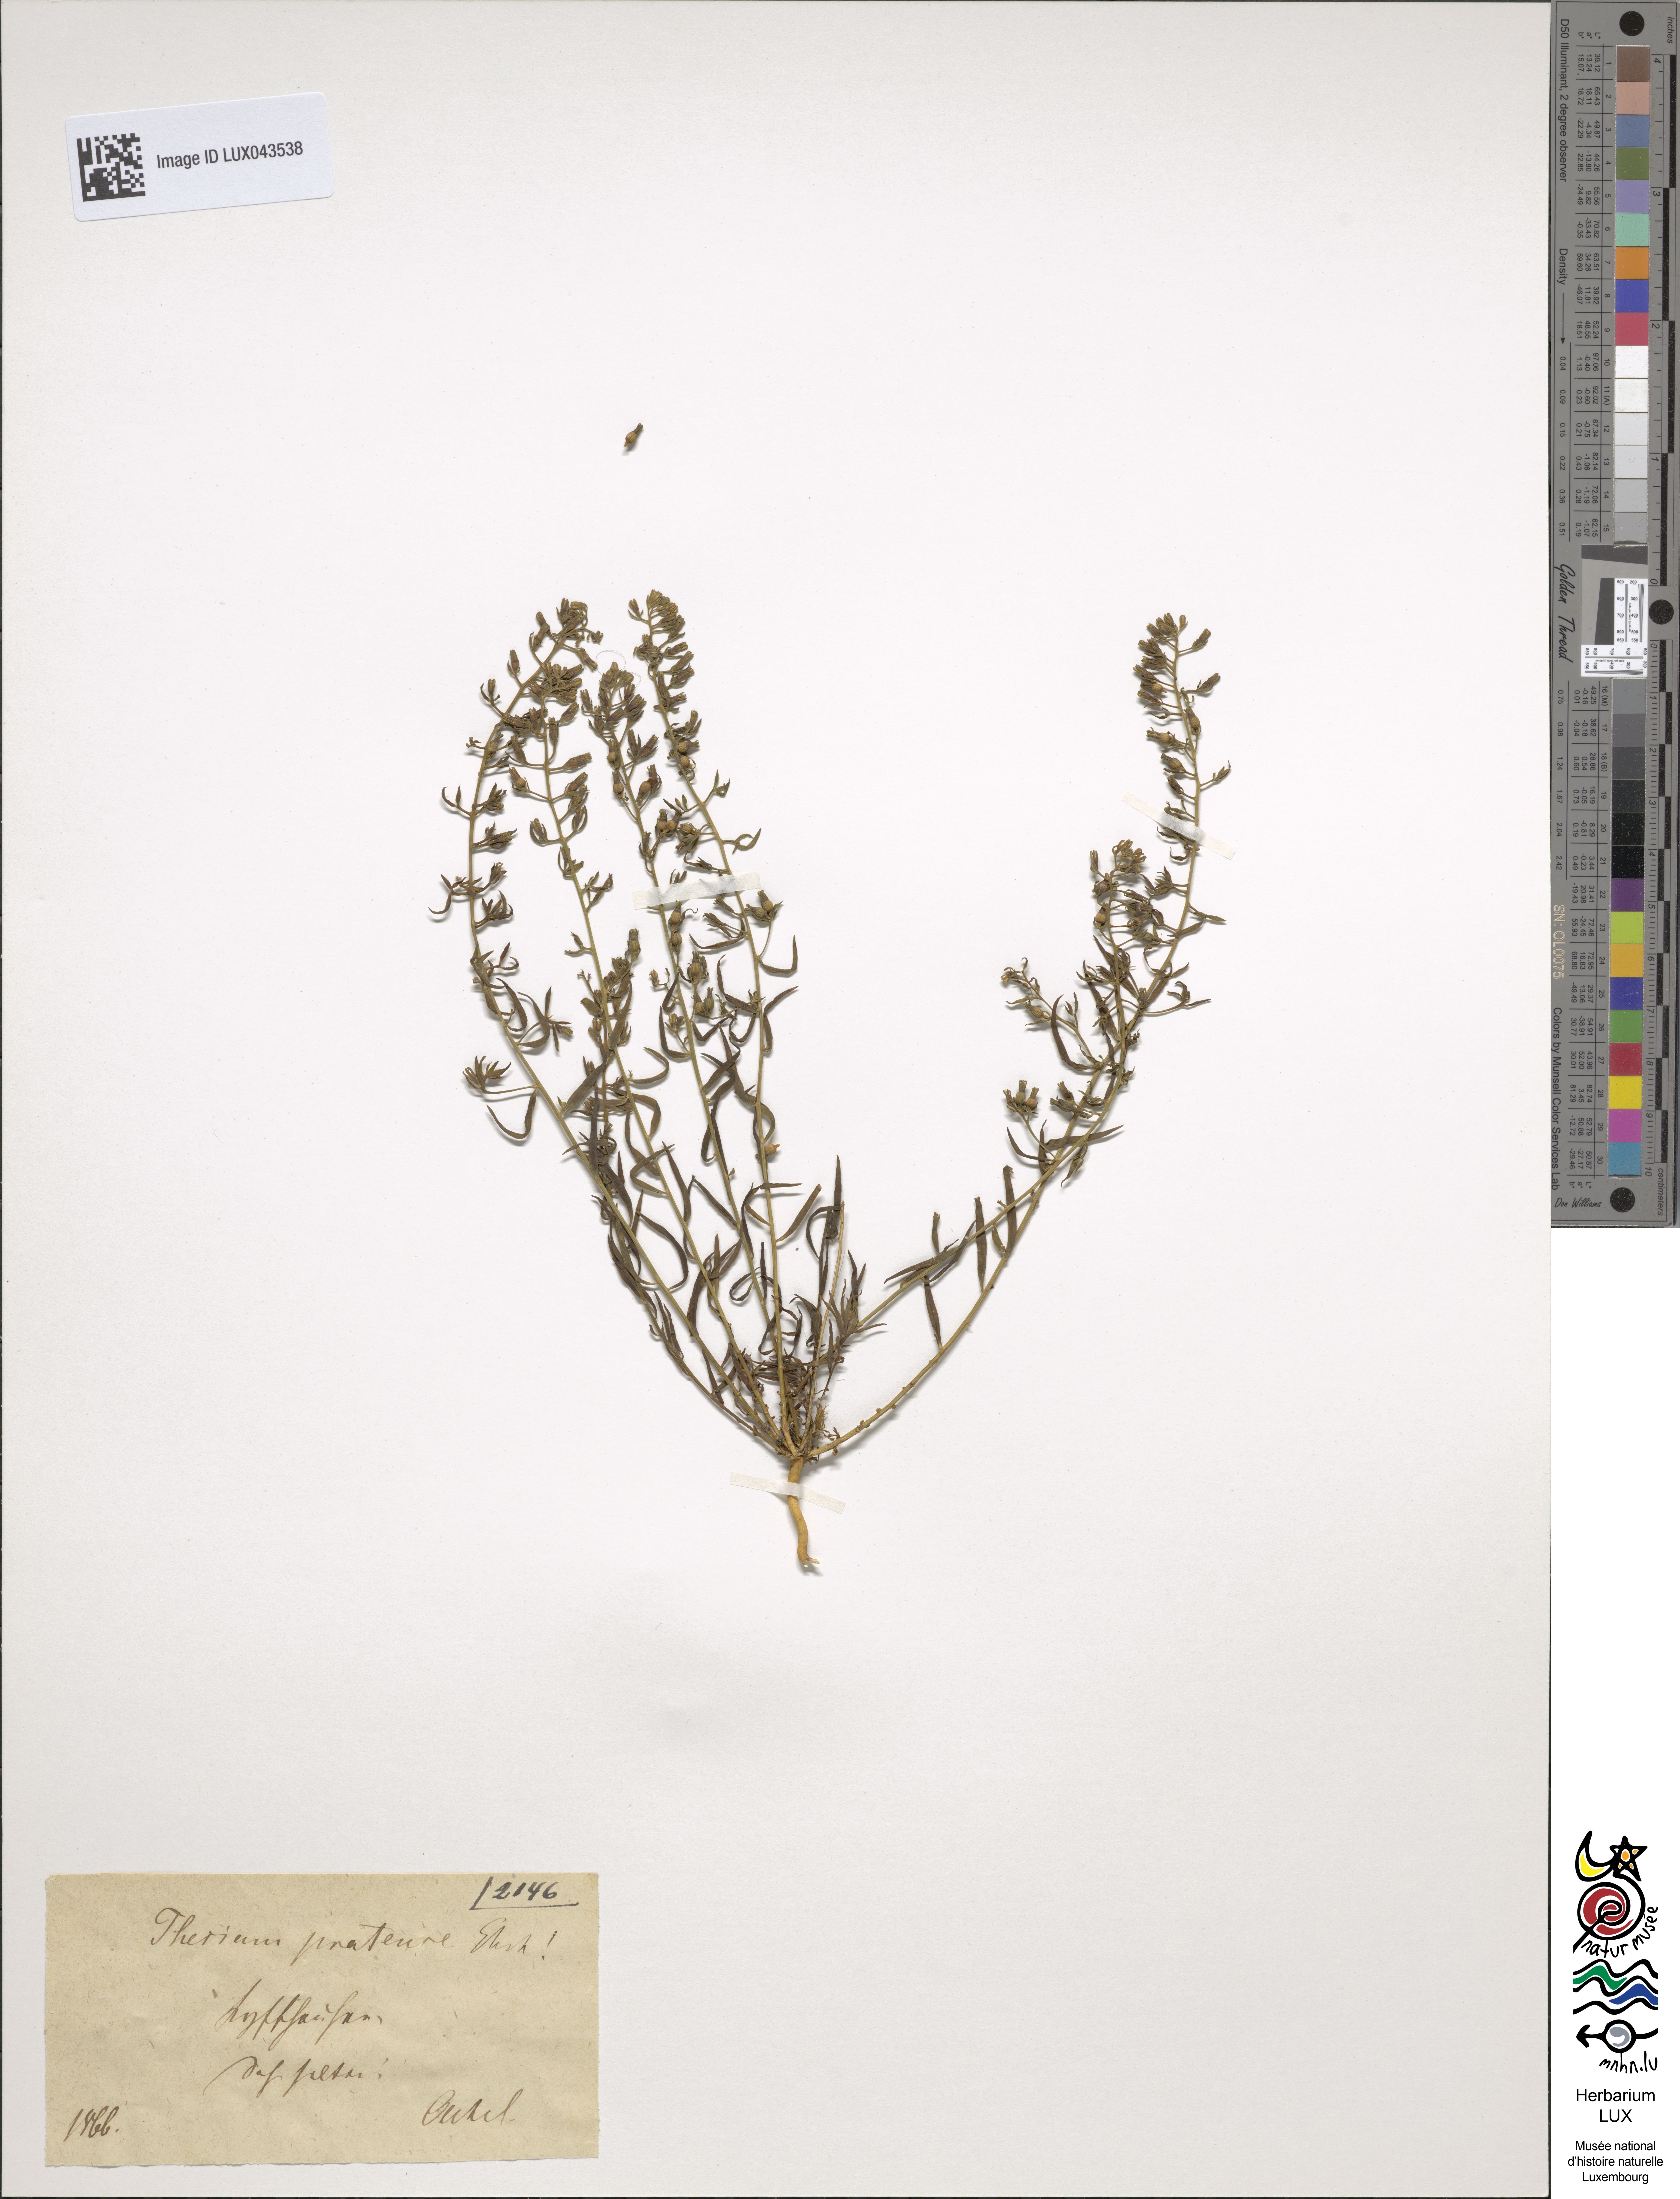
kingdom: Plantae
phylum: Tracheophyta
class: Magnoliopsida
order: Santalales
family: Thesiaceae
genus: Thesium
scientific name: Thesium pyrenaicum
